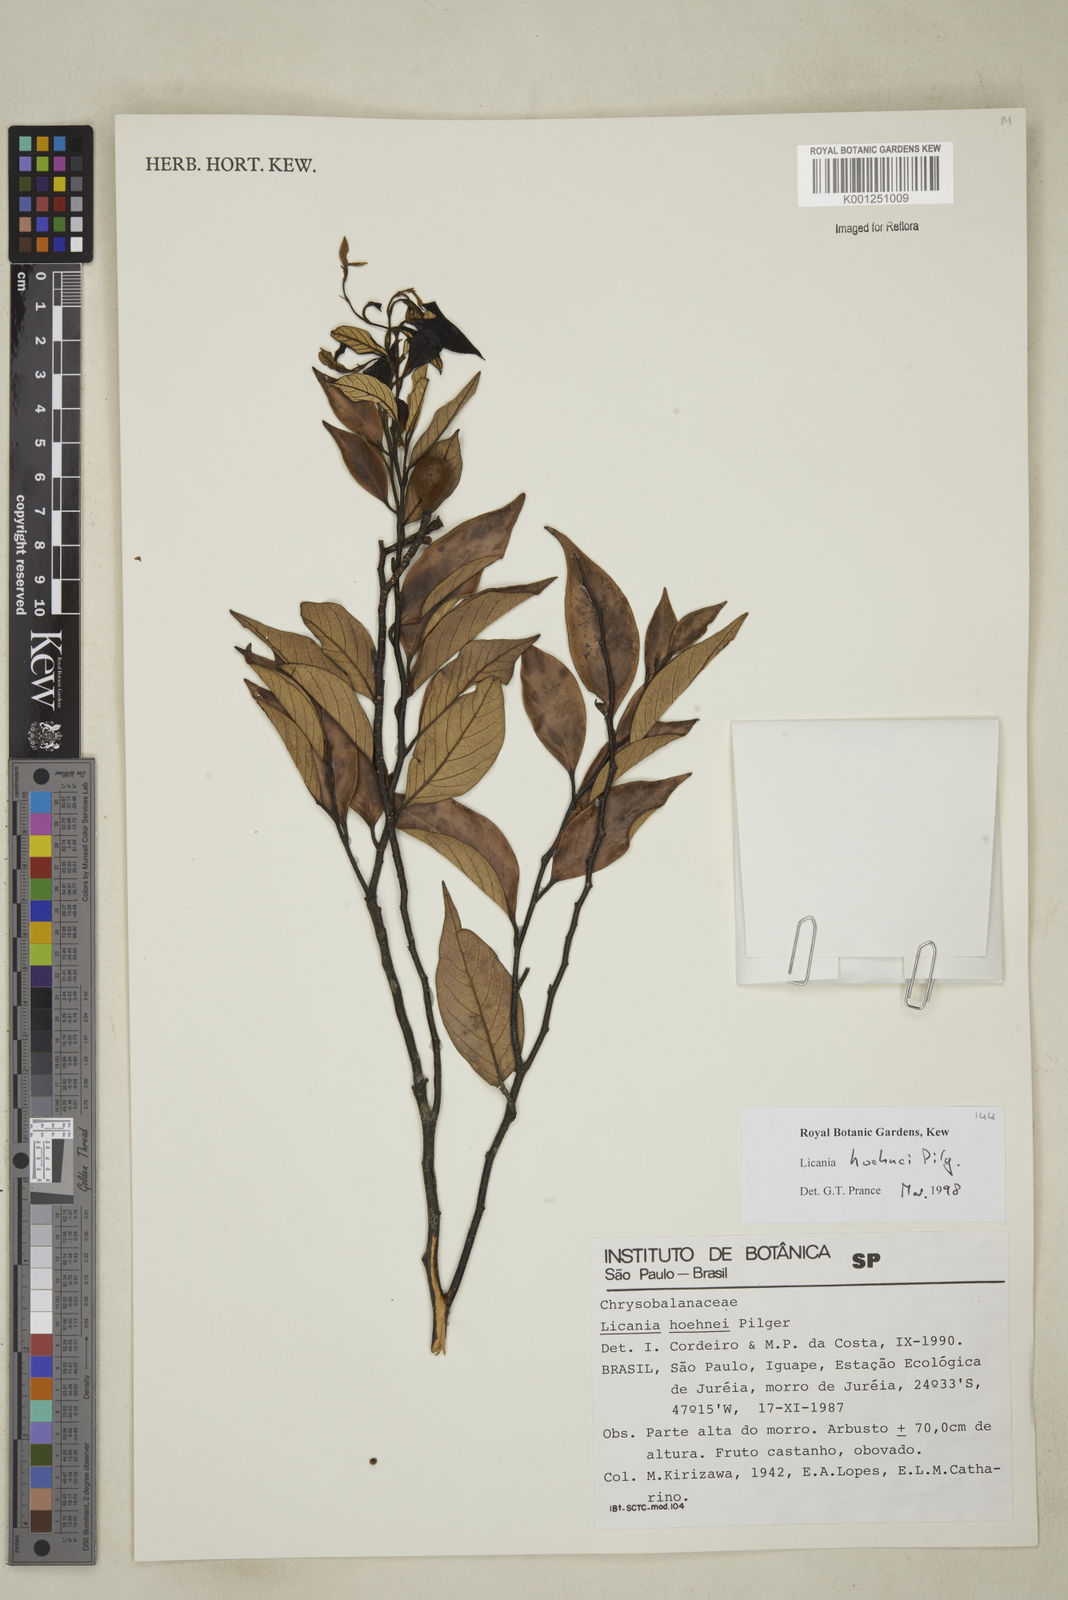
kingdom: Plantae
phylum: Tracheophyta
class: Magnoliopsida
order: Malpighiales
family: Chrysobalanaceae
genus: Licania
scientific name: Licania indurata
